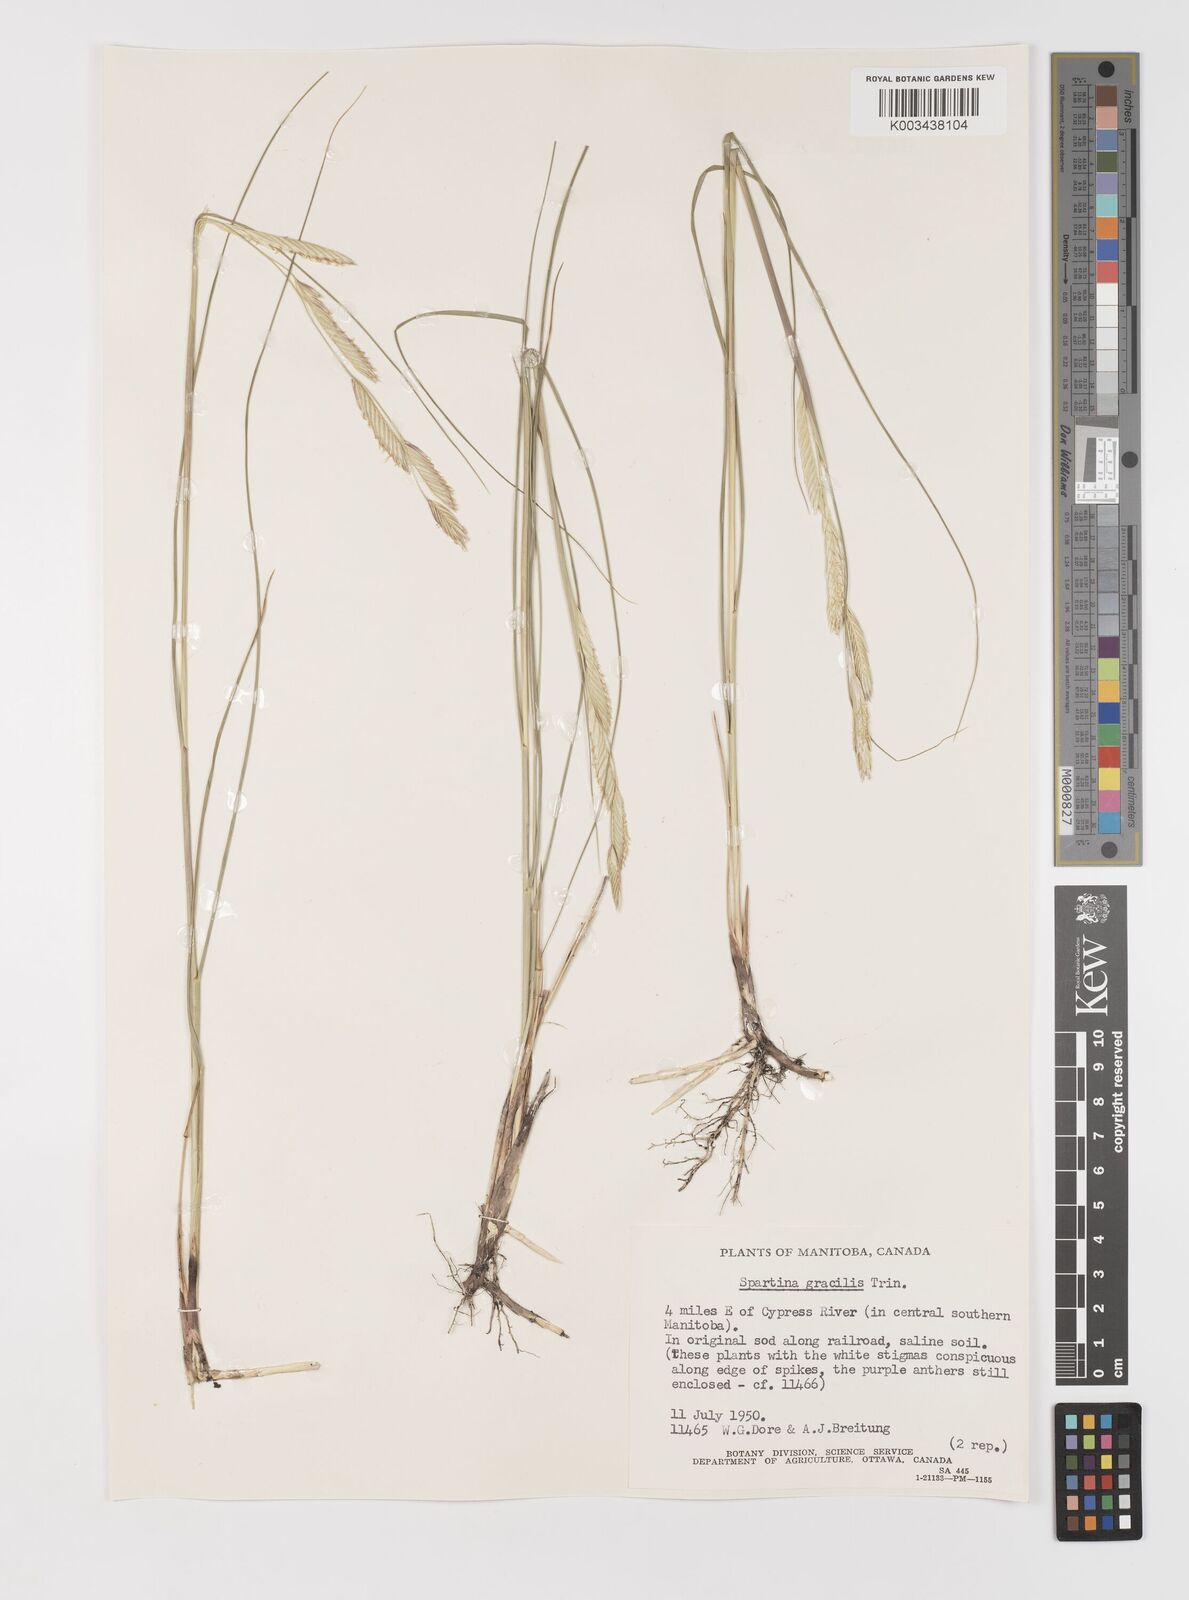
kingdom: Plantae
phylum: Tracheophyta
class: Liliopsida
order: Poales
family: Poaceae
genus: Sporobolus
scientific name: Sporobolus hookerianus
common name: Alkali cordgrass
